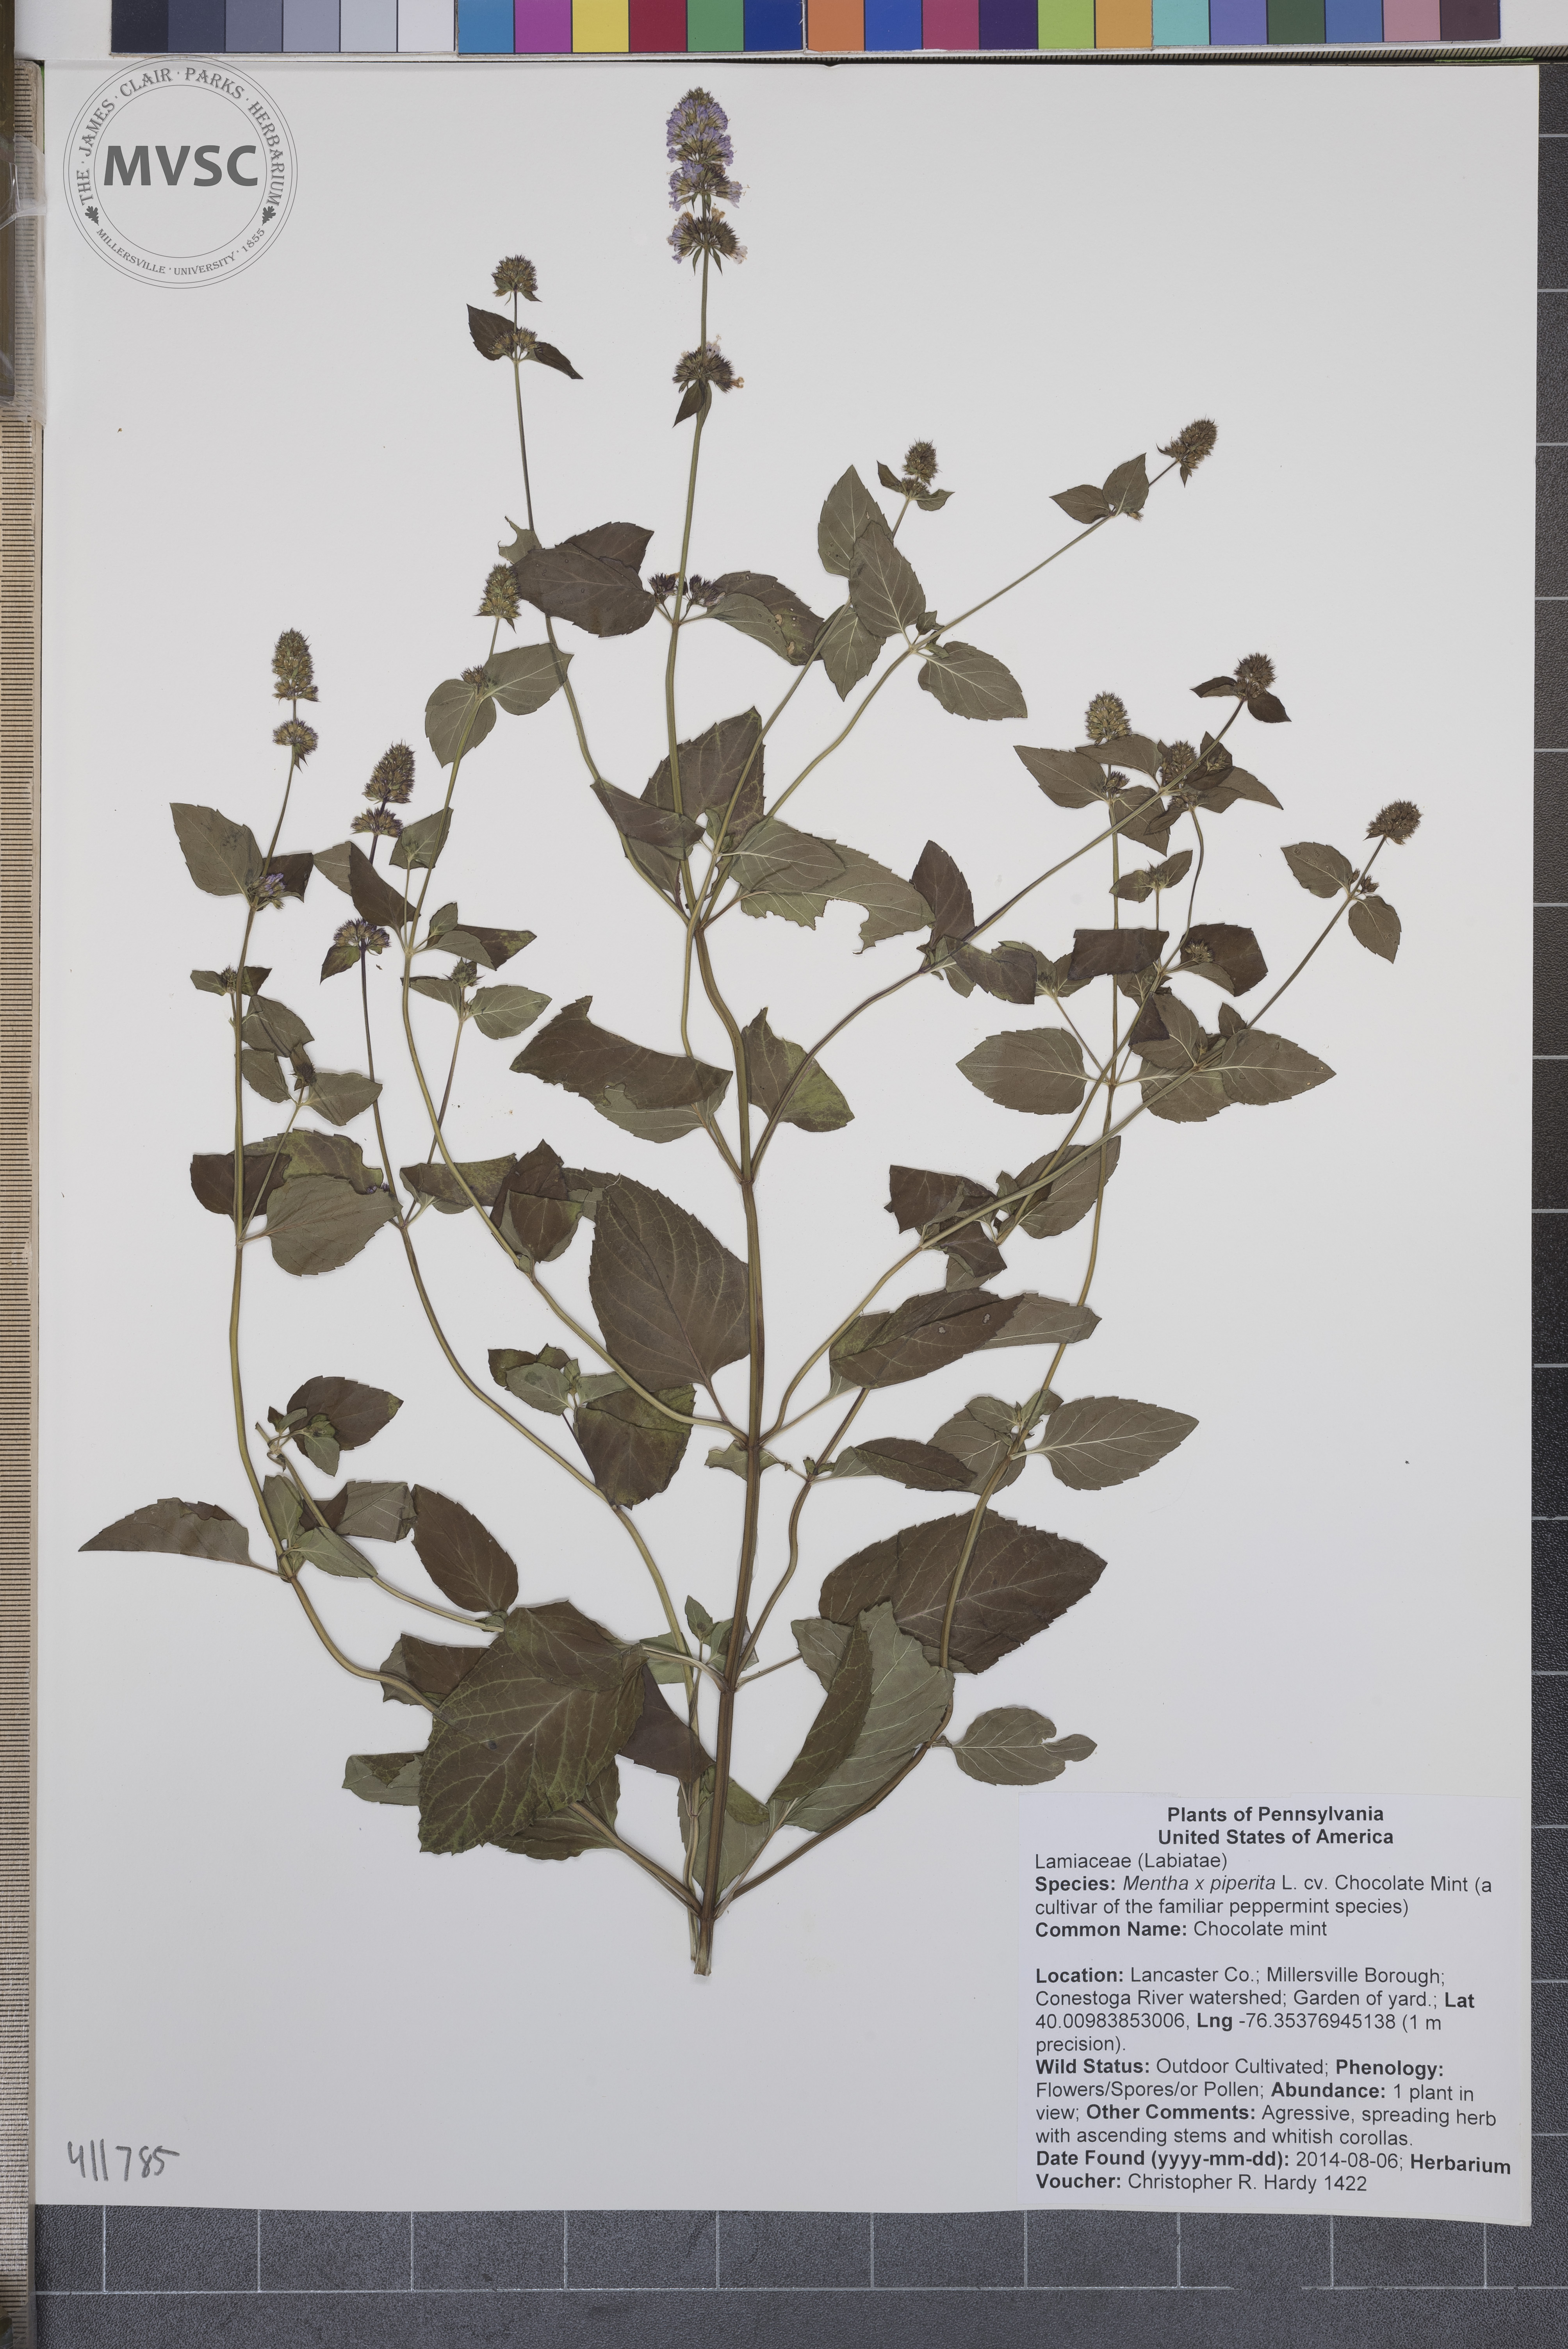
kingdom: Plantae
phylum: Tracheophyta
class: Magnoliopsida
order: Lamiales
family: Lamiaceae
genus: Mentha
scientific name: Mentha piperita
